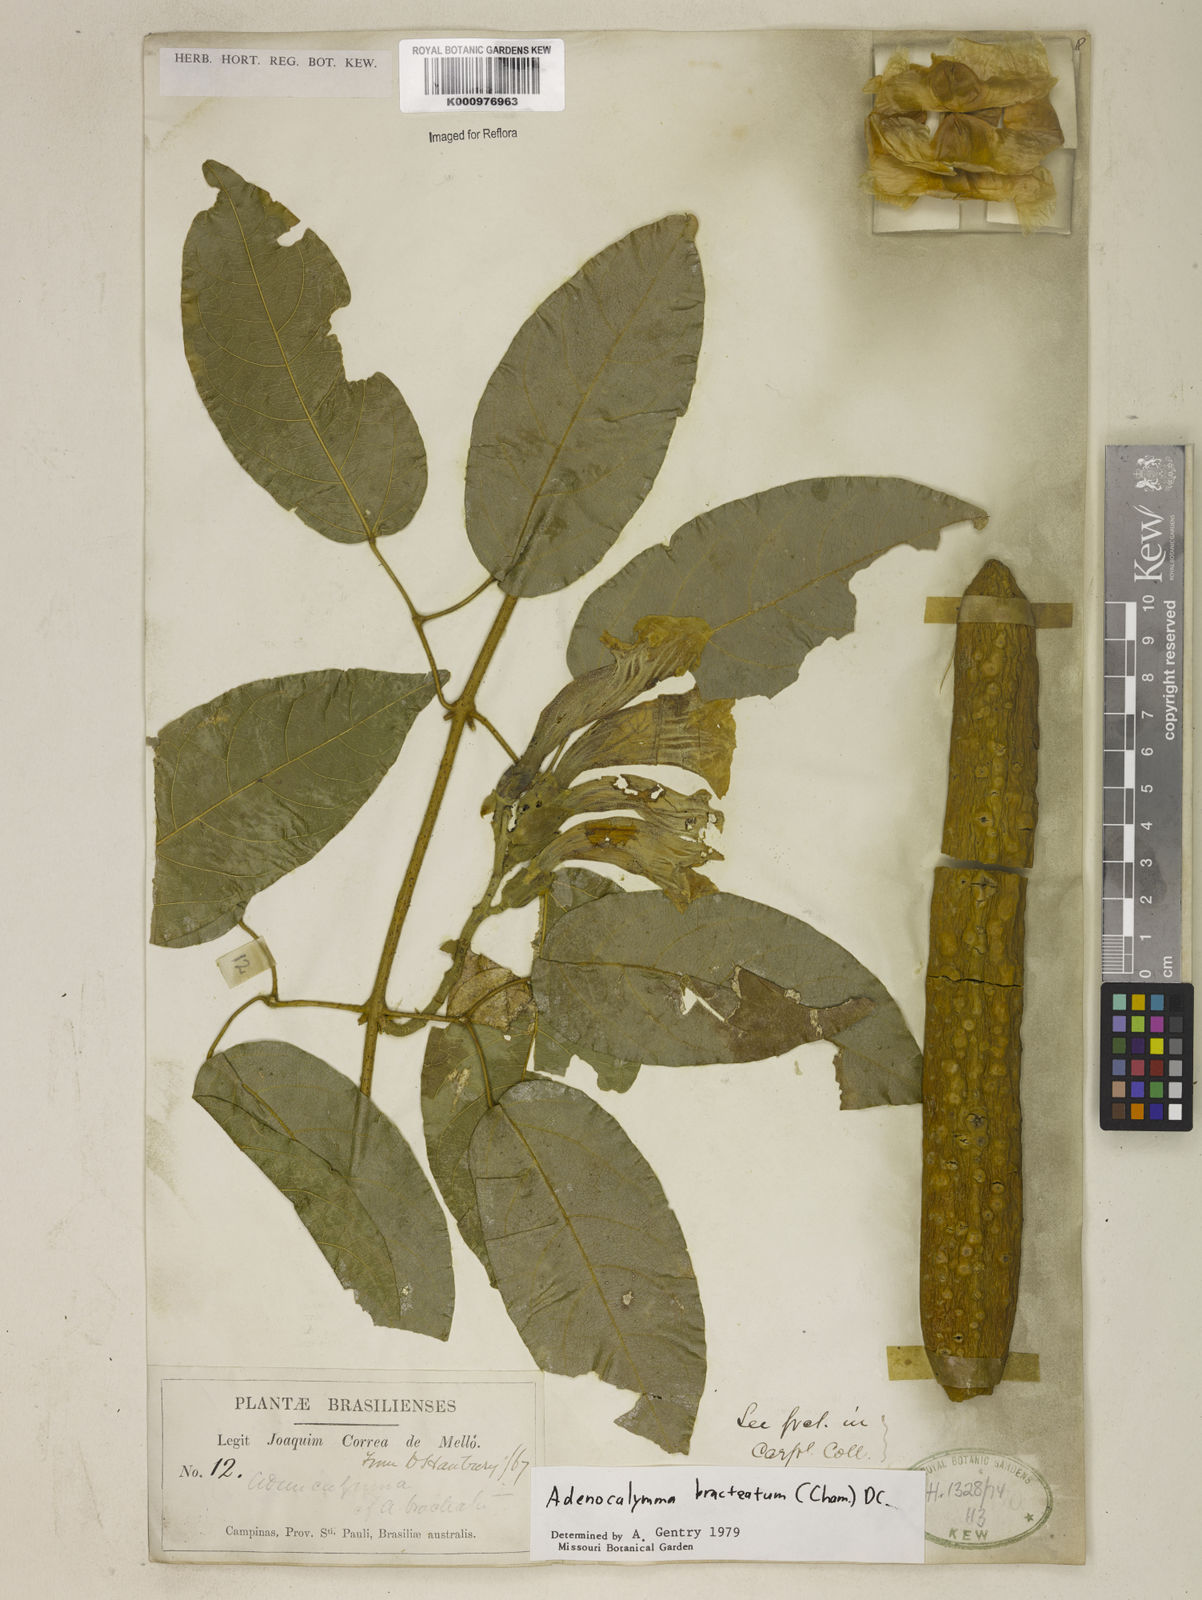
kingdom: Plantae
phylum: Tracheophyta
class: Magnoliopsida
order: Lamiales
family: Bignoniaceae
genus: Adenocalymma
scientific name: Adenocalymma bracteatum
